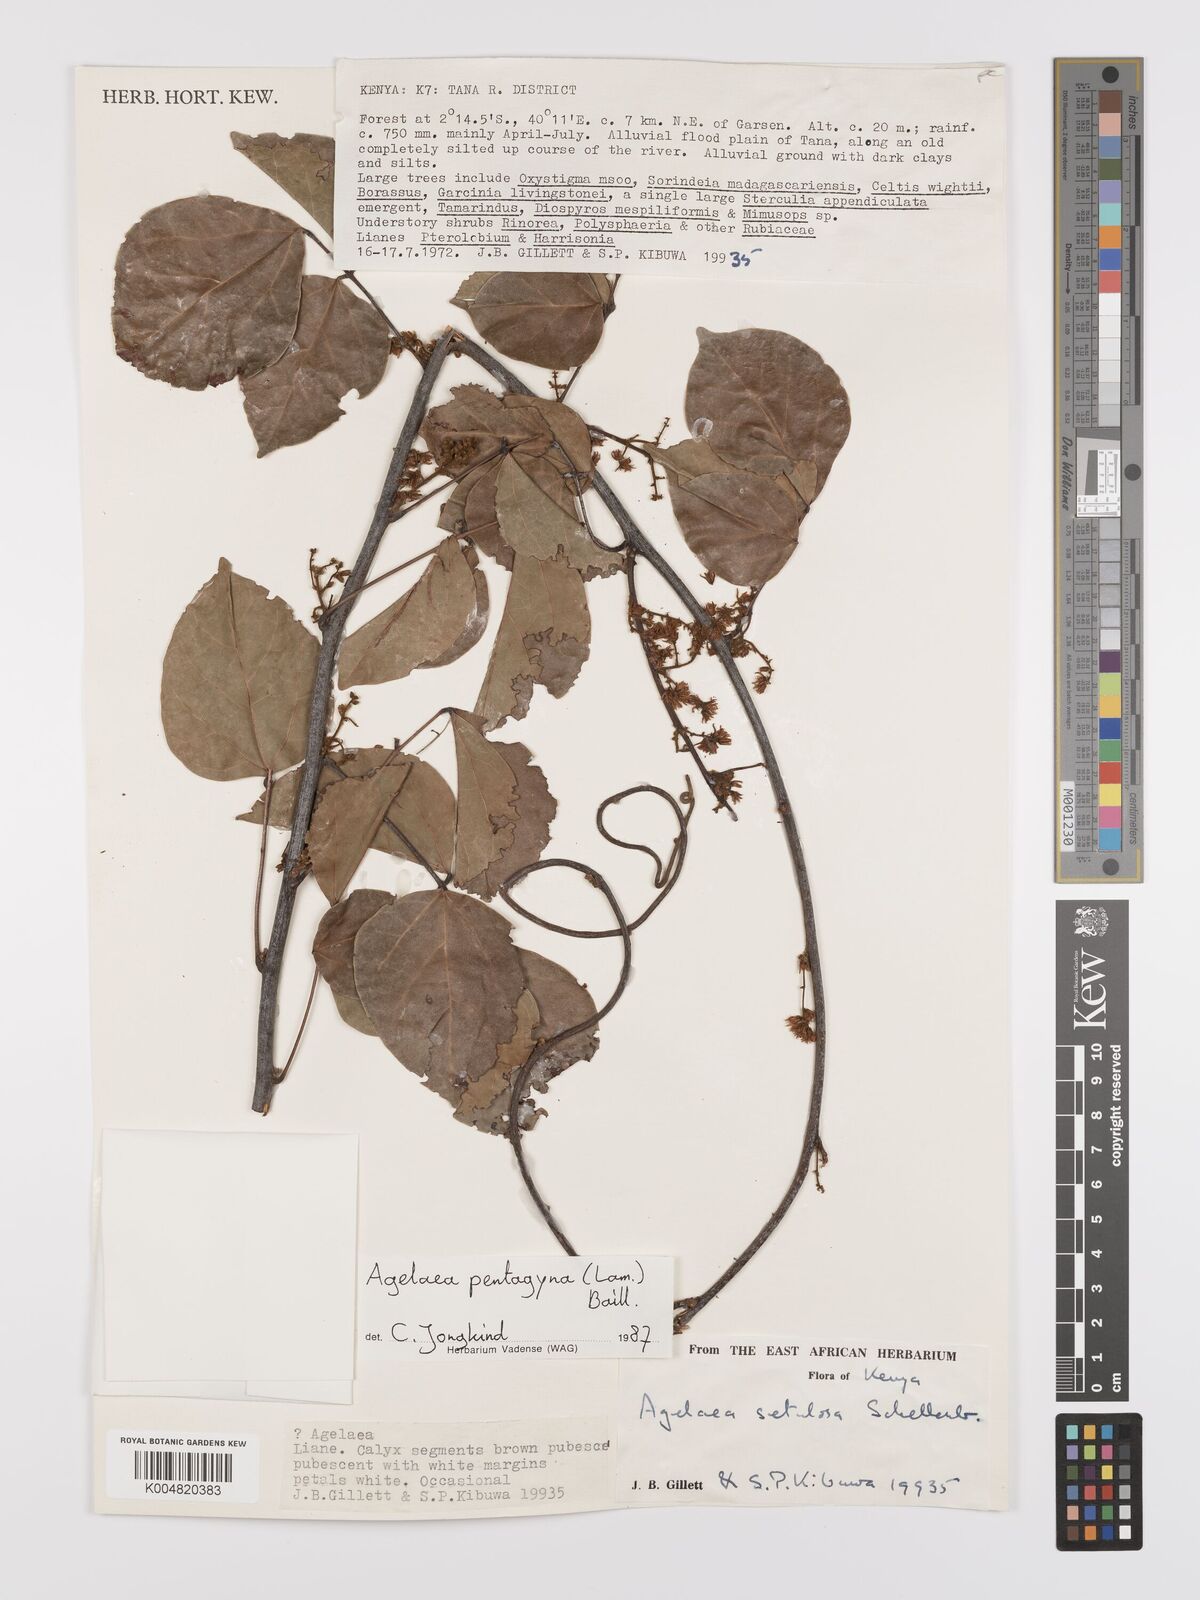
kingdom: Plantae
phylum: Tracheophyta
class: Magnoliopsida
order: Oxalidales
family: Connaraceae
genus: Agelaea
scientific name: Agelaea pentagyna
